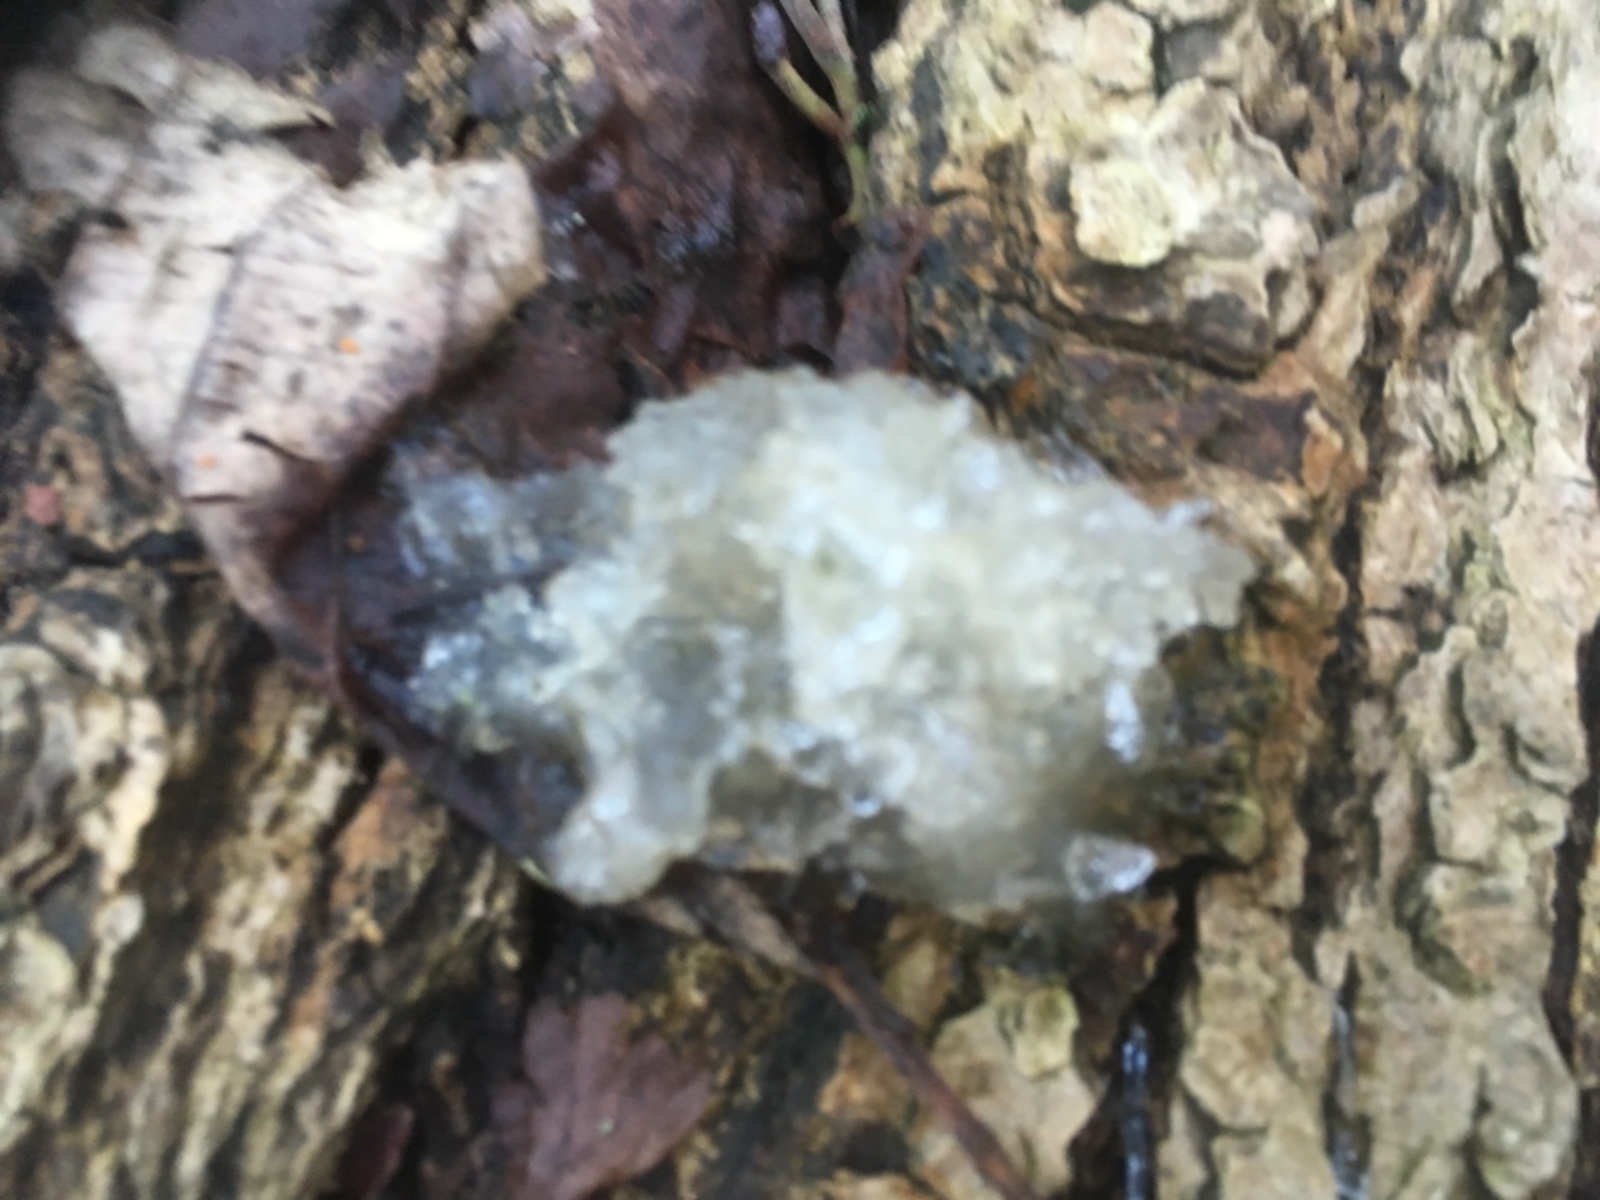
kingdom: Fungi
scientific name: Fungi
